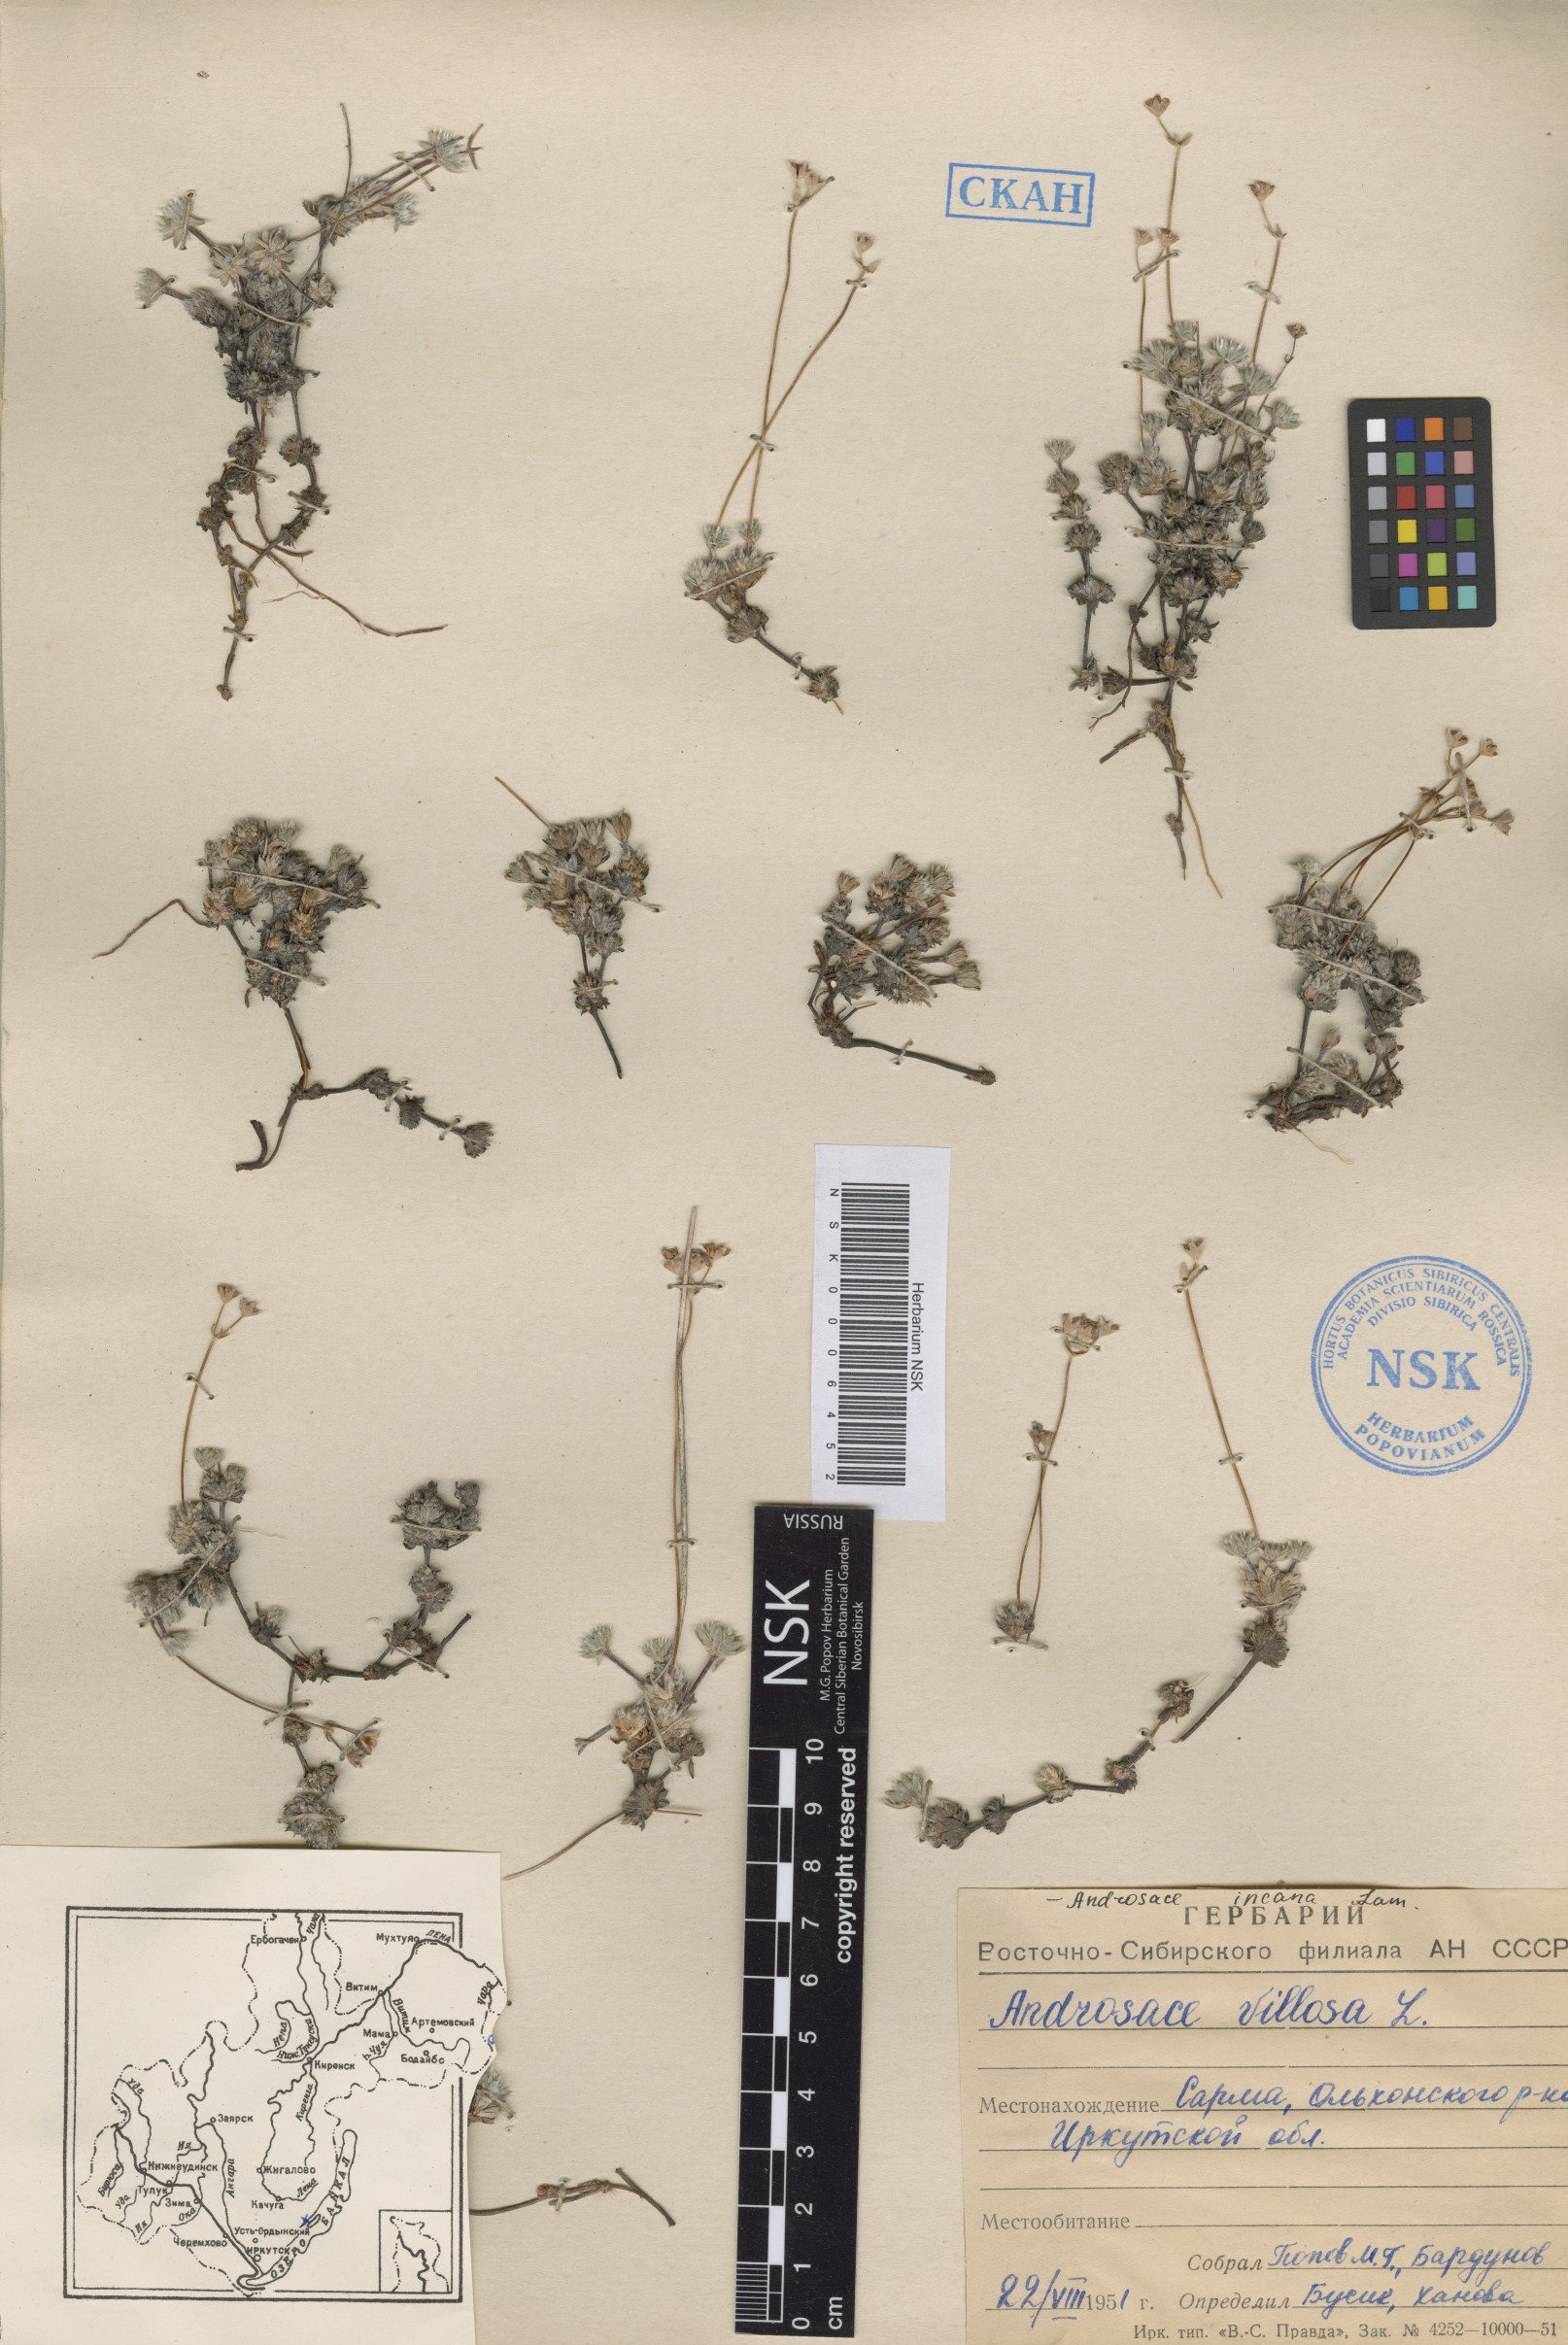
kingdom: Plantae
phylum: Tracheophyta
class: Magnoliopsida
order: Ericales
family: Primulaceae
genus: Androsace
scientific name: Androsace incana
